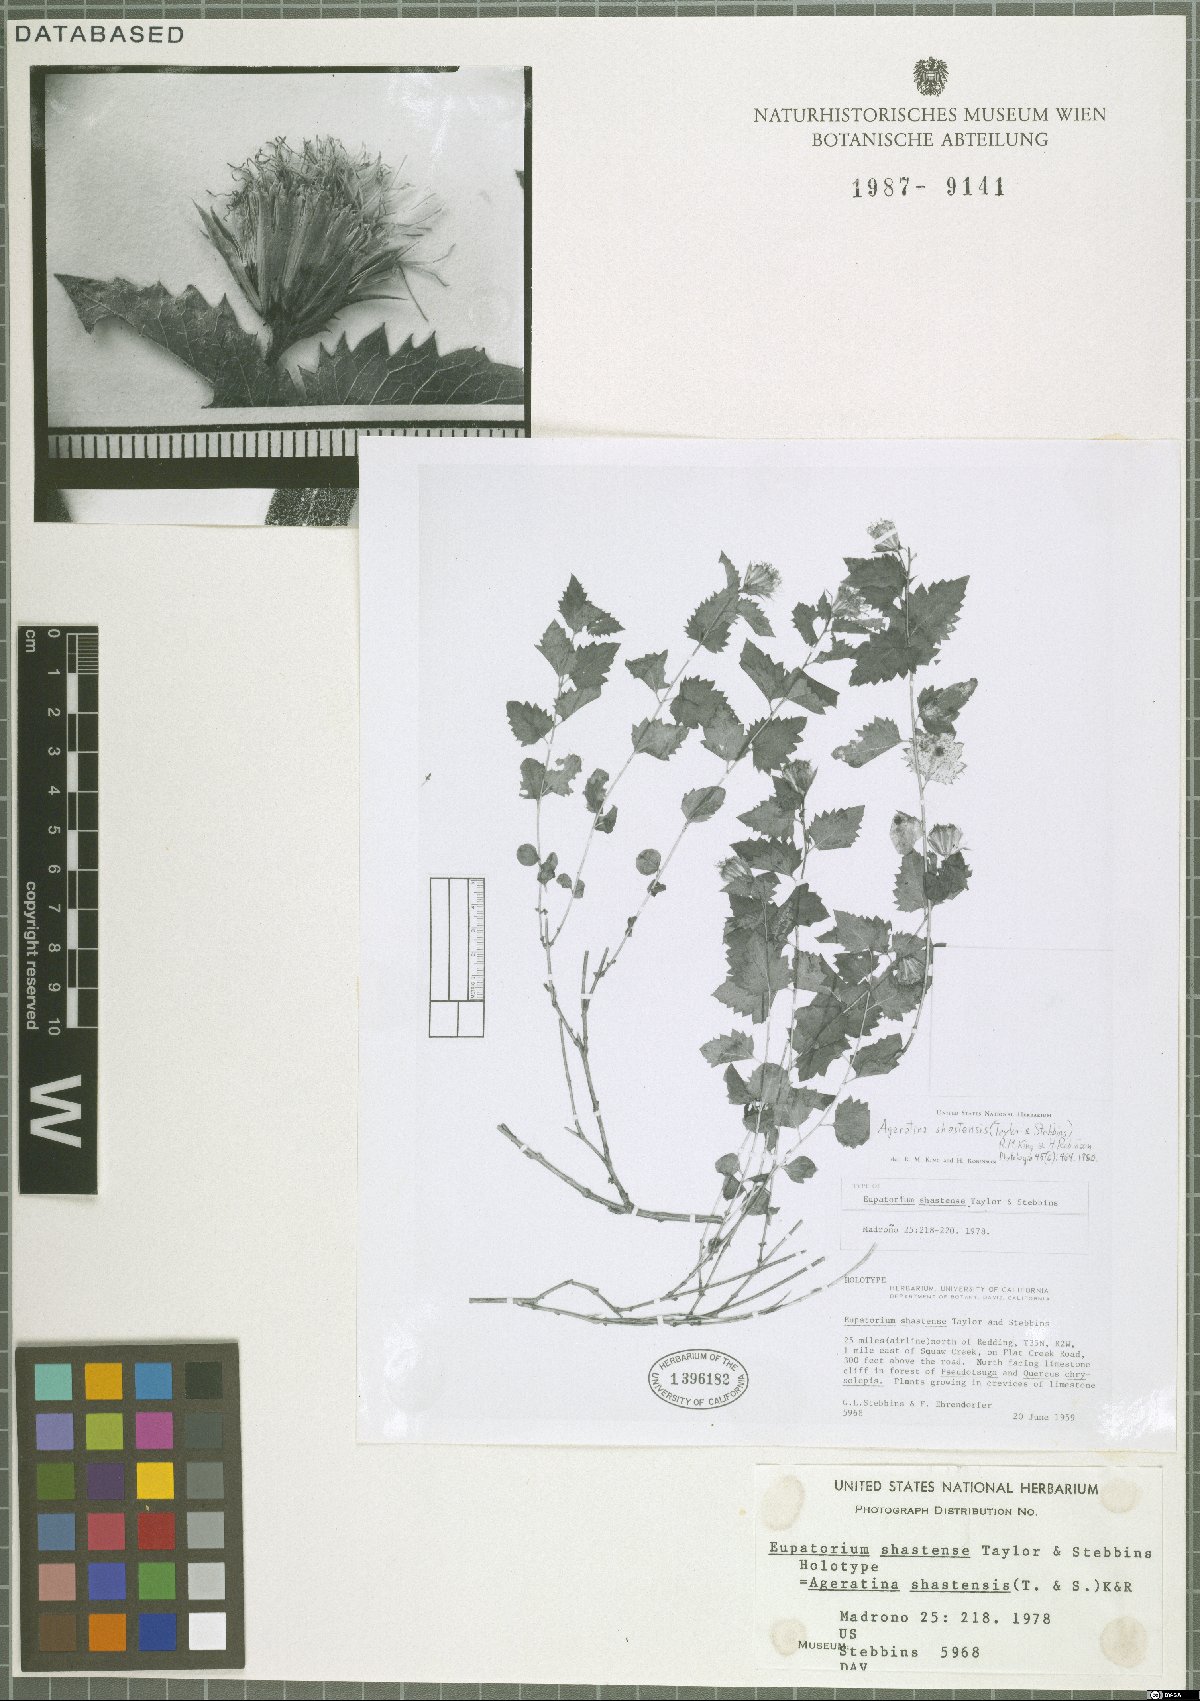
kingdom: Plantae
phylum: Tracheophyta
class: Magnoliopsida
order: Asterales
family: Asteraceae
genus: Ageratina
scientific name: Ageratina shastensis
